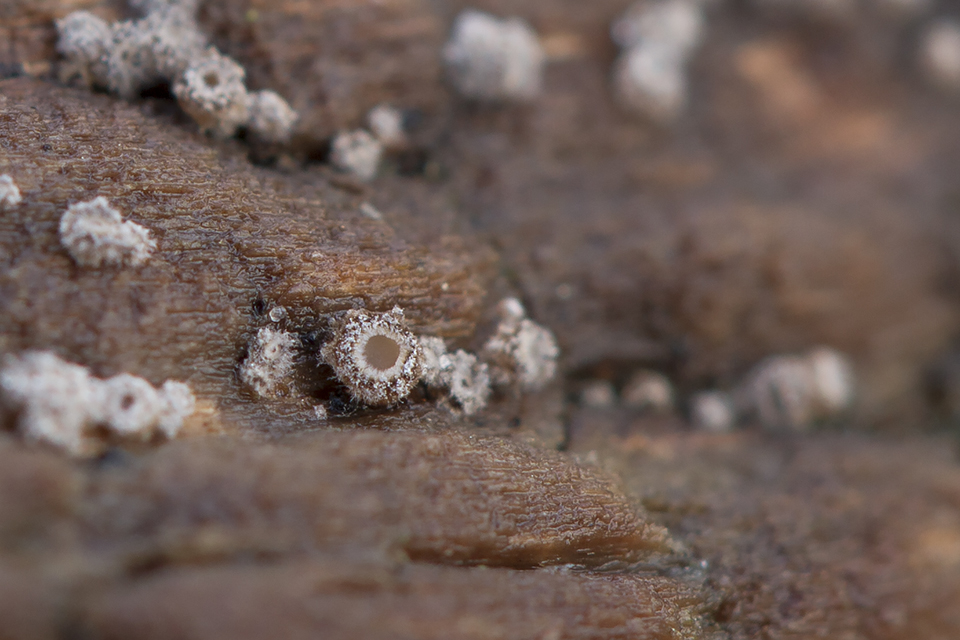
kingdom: Fungi
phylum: Ascomycota
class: Leotiomycetes
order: Helotiales
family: Solenopeziaceae
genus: Lasiobelonium
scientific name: Lasiobelonium variegatum
